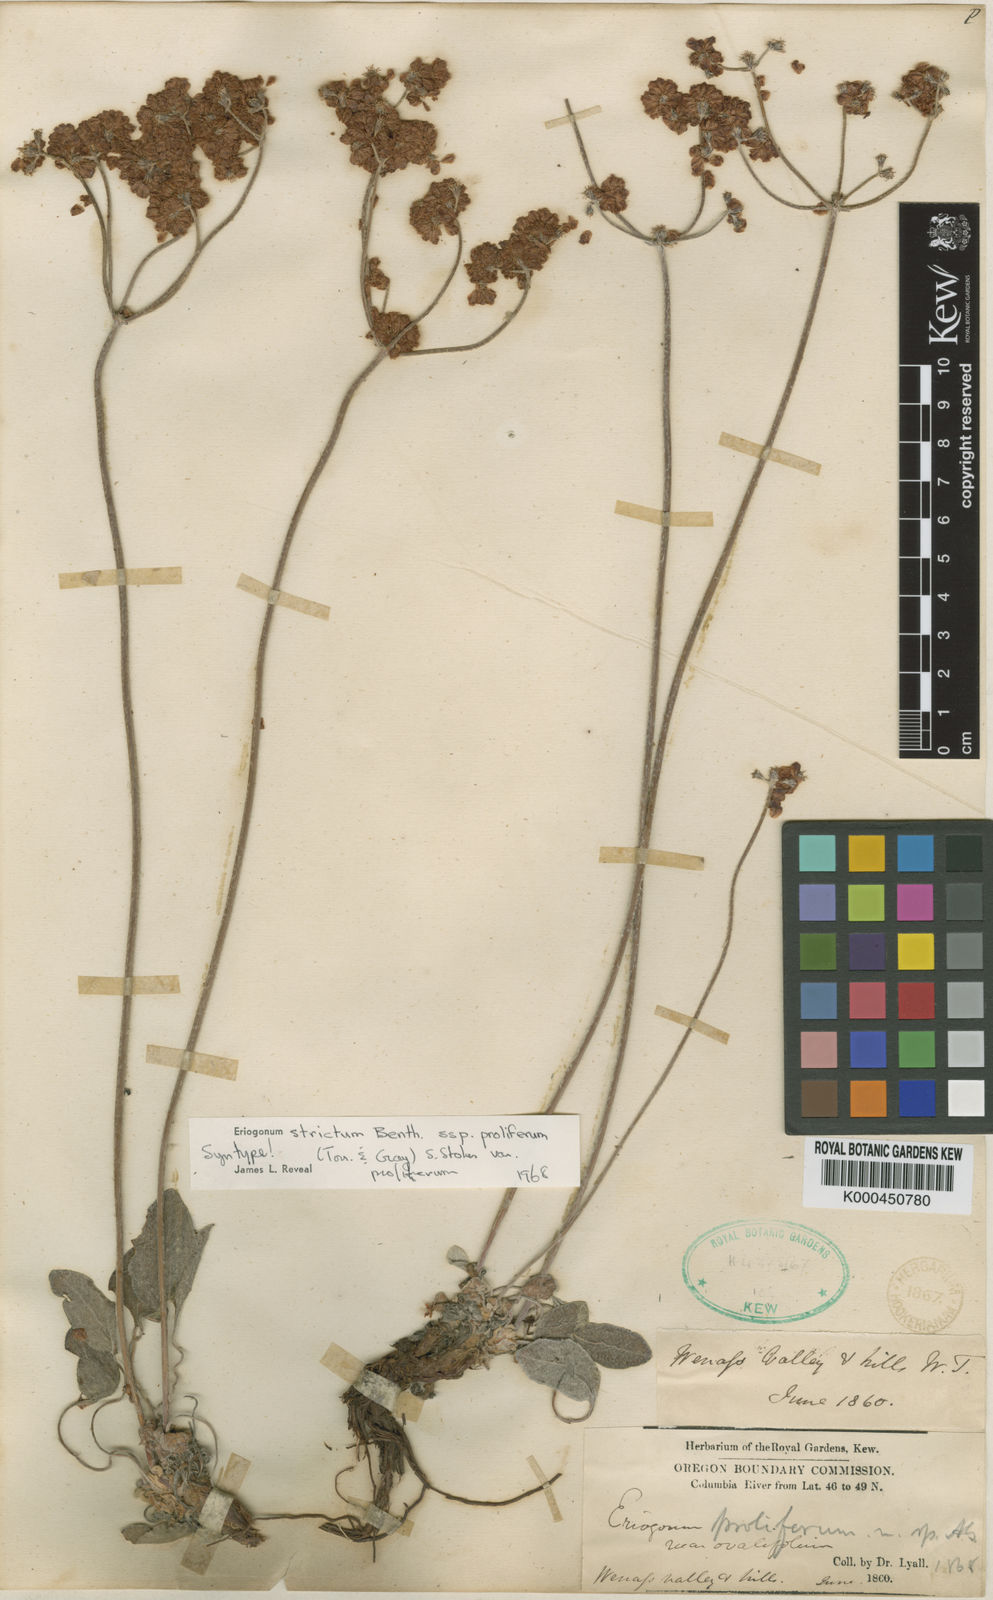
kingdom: Plantae
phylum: Tracheophyta
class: Magnoliopsida
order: Caryophyllales
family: Polygonaceae
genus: Eriogonum
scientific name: Eriogonum strictum
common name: Blue mountain buckwheat
